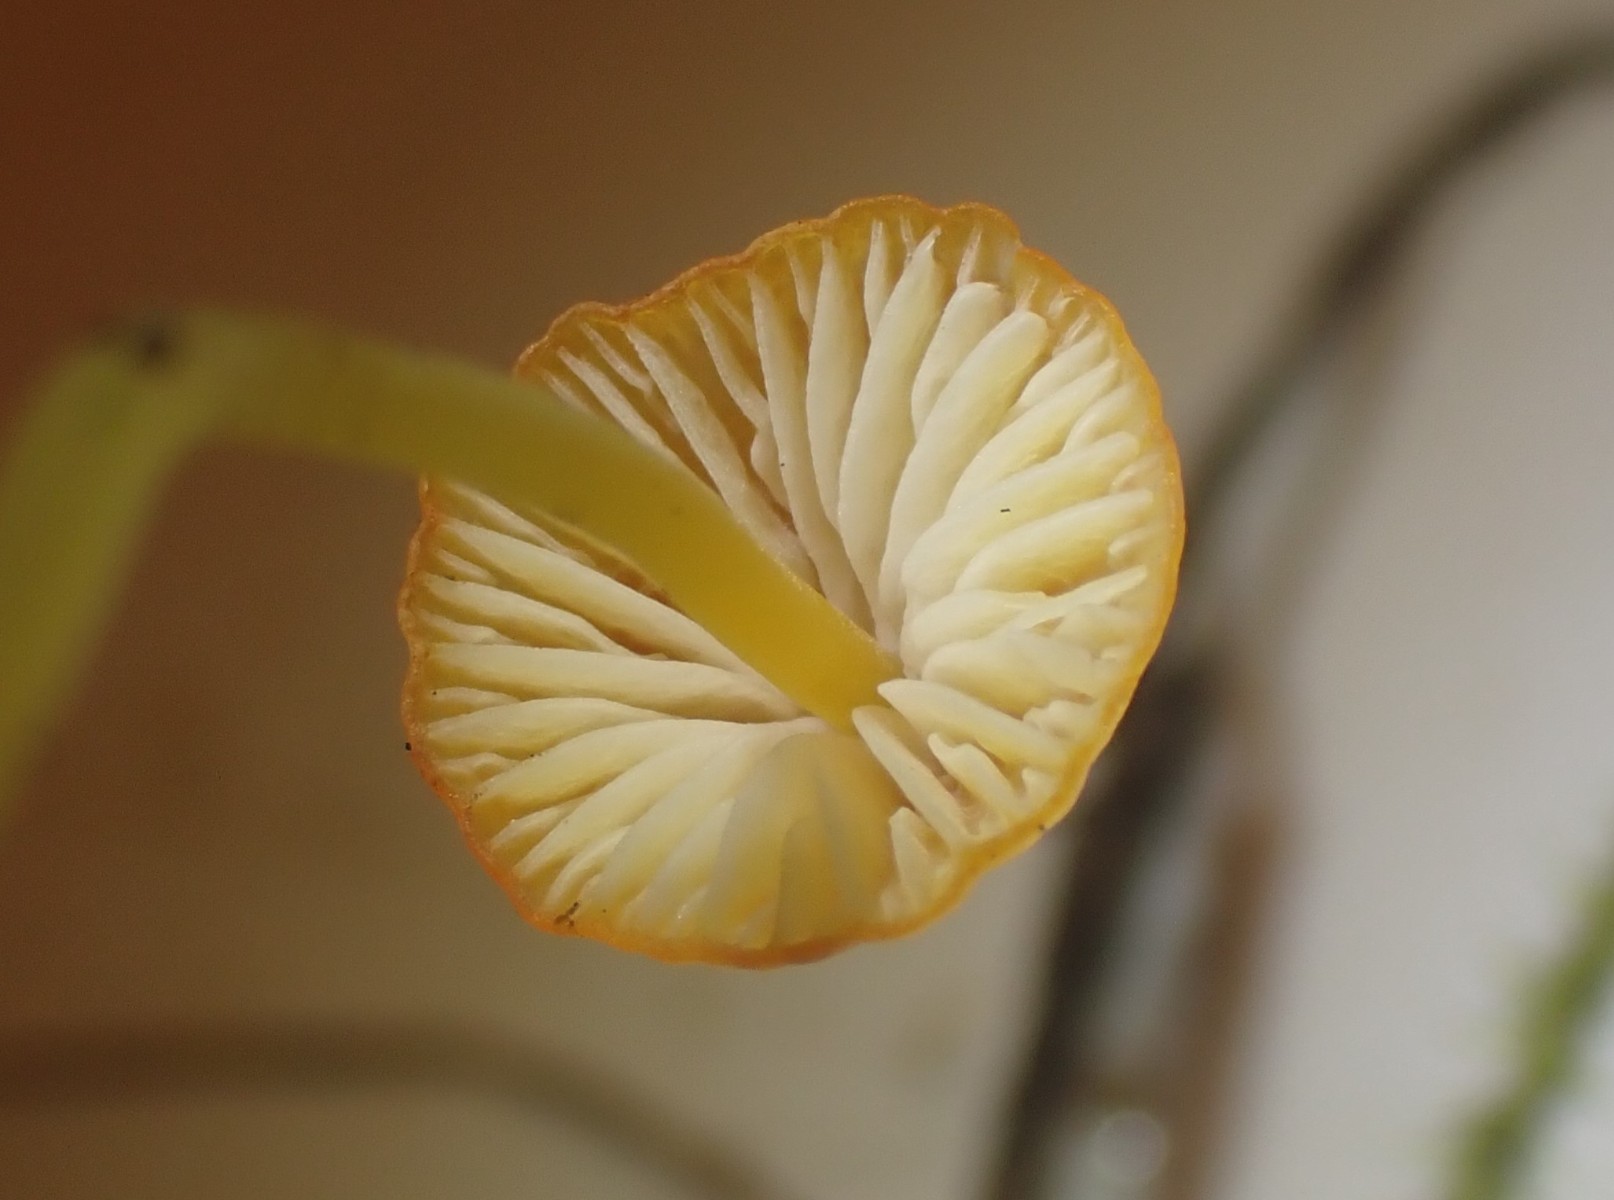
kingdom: Fungi
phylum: Basidiomycota
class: Agaricomycetes
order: Agaricales
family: Mycenaceae
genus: Mycena
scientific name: Mycena acicula
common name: orange huesvamp
